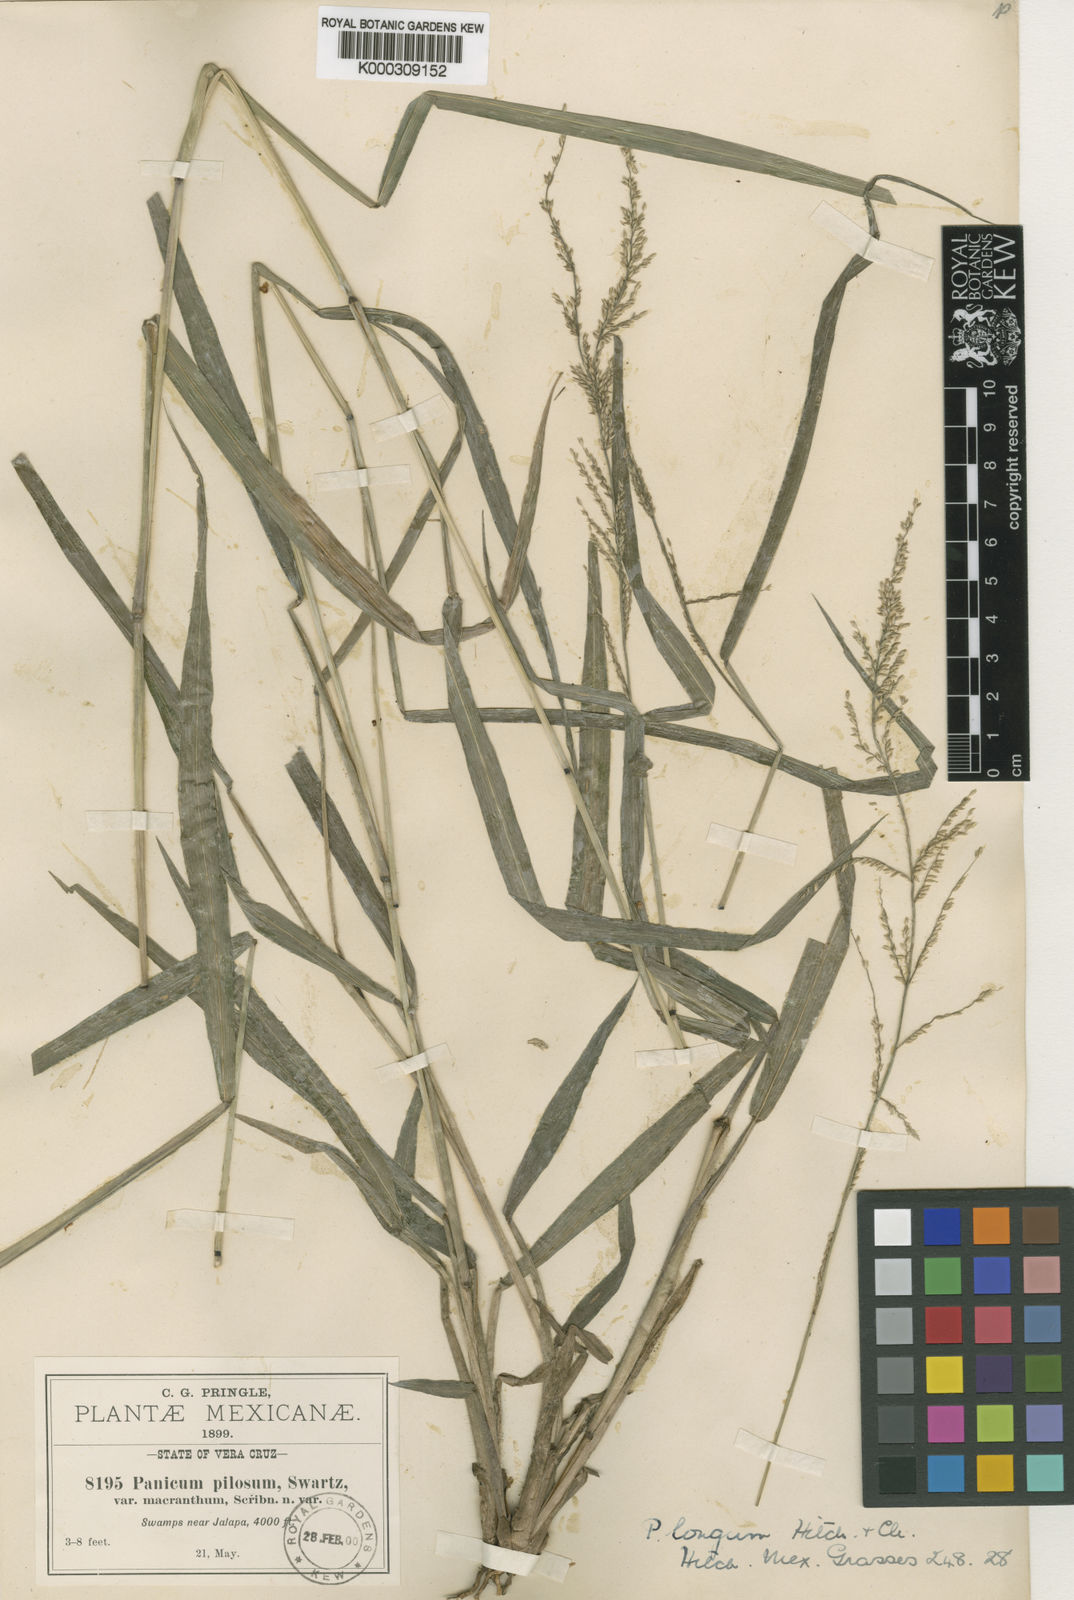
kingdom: Plantae
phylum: Tracheophyta
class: Liliopsida
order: Poales
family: Poaceae
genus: Hymenachne
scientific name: Hymenachne longa
